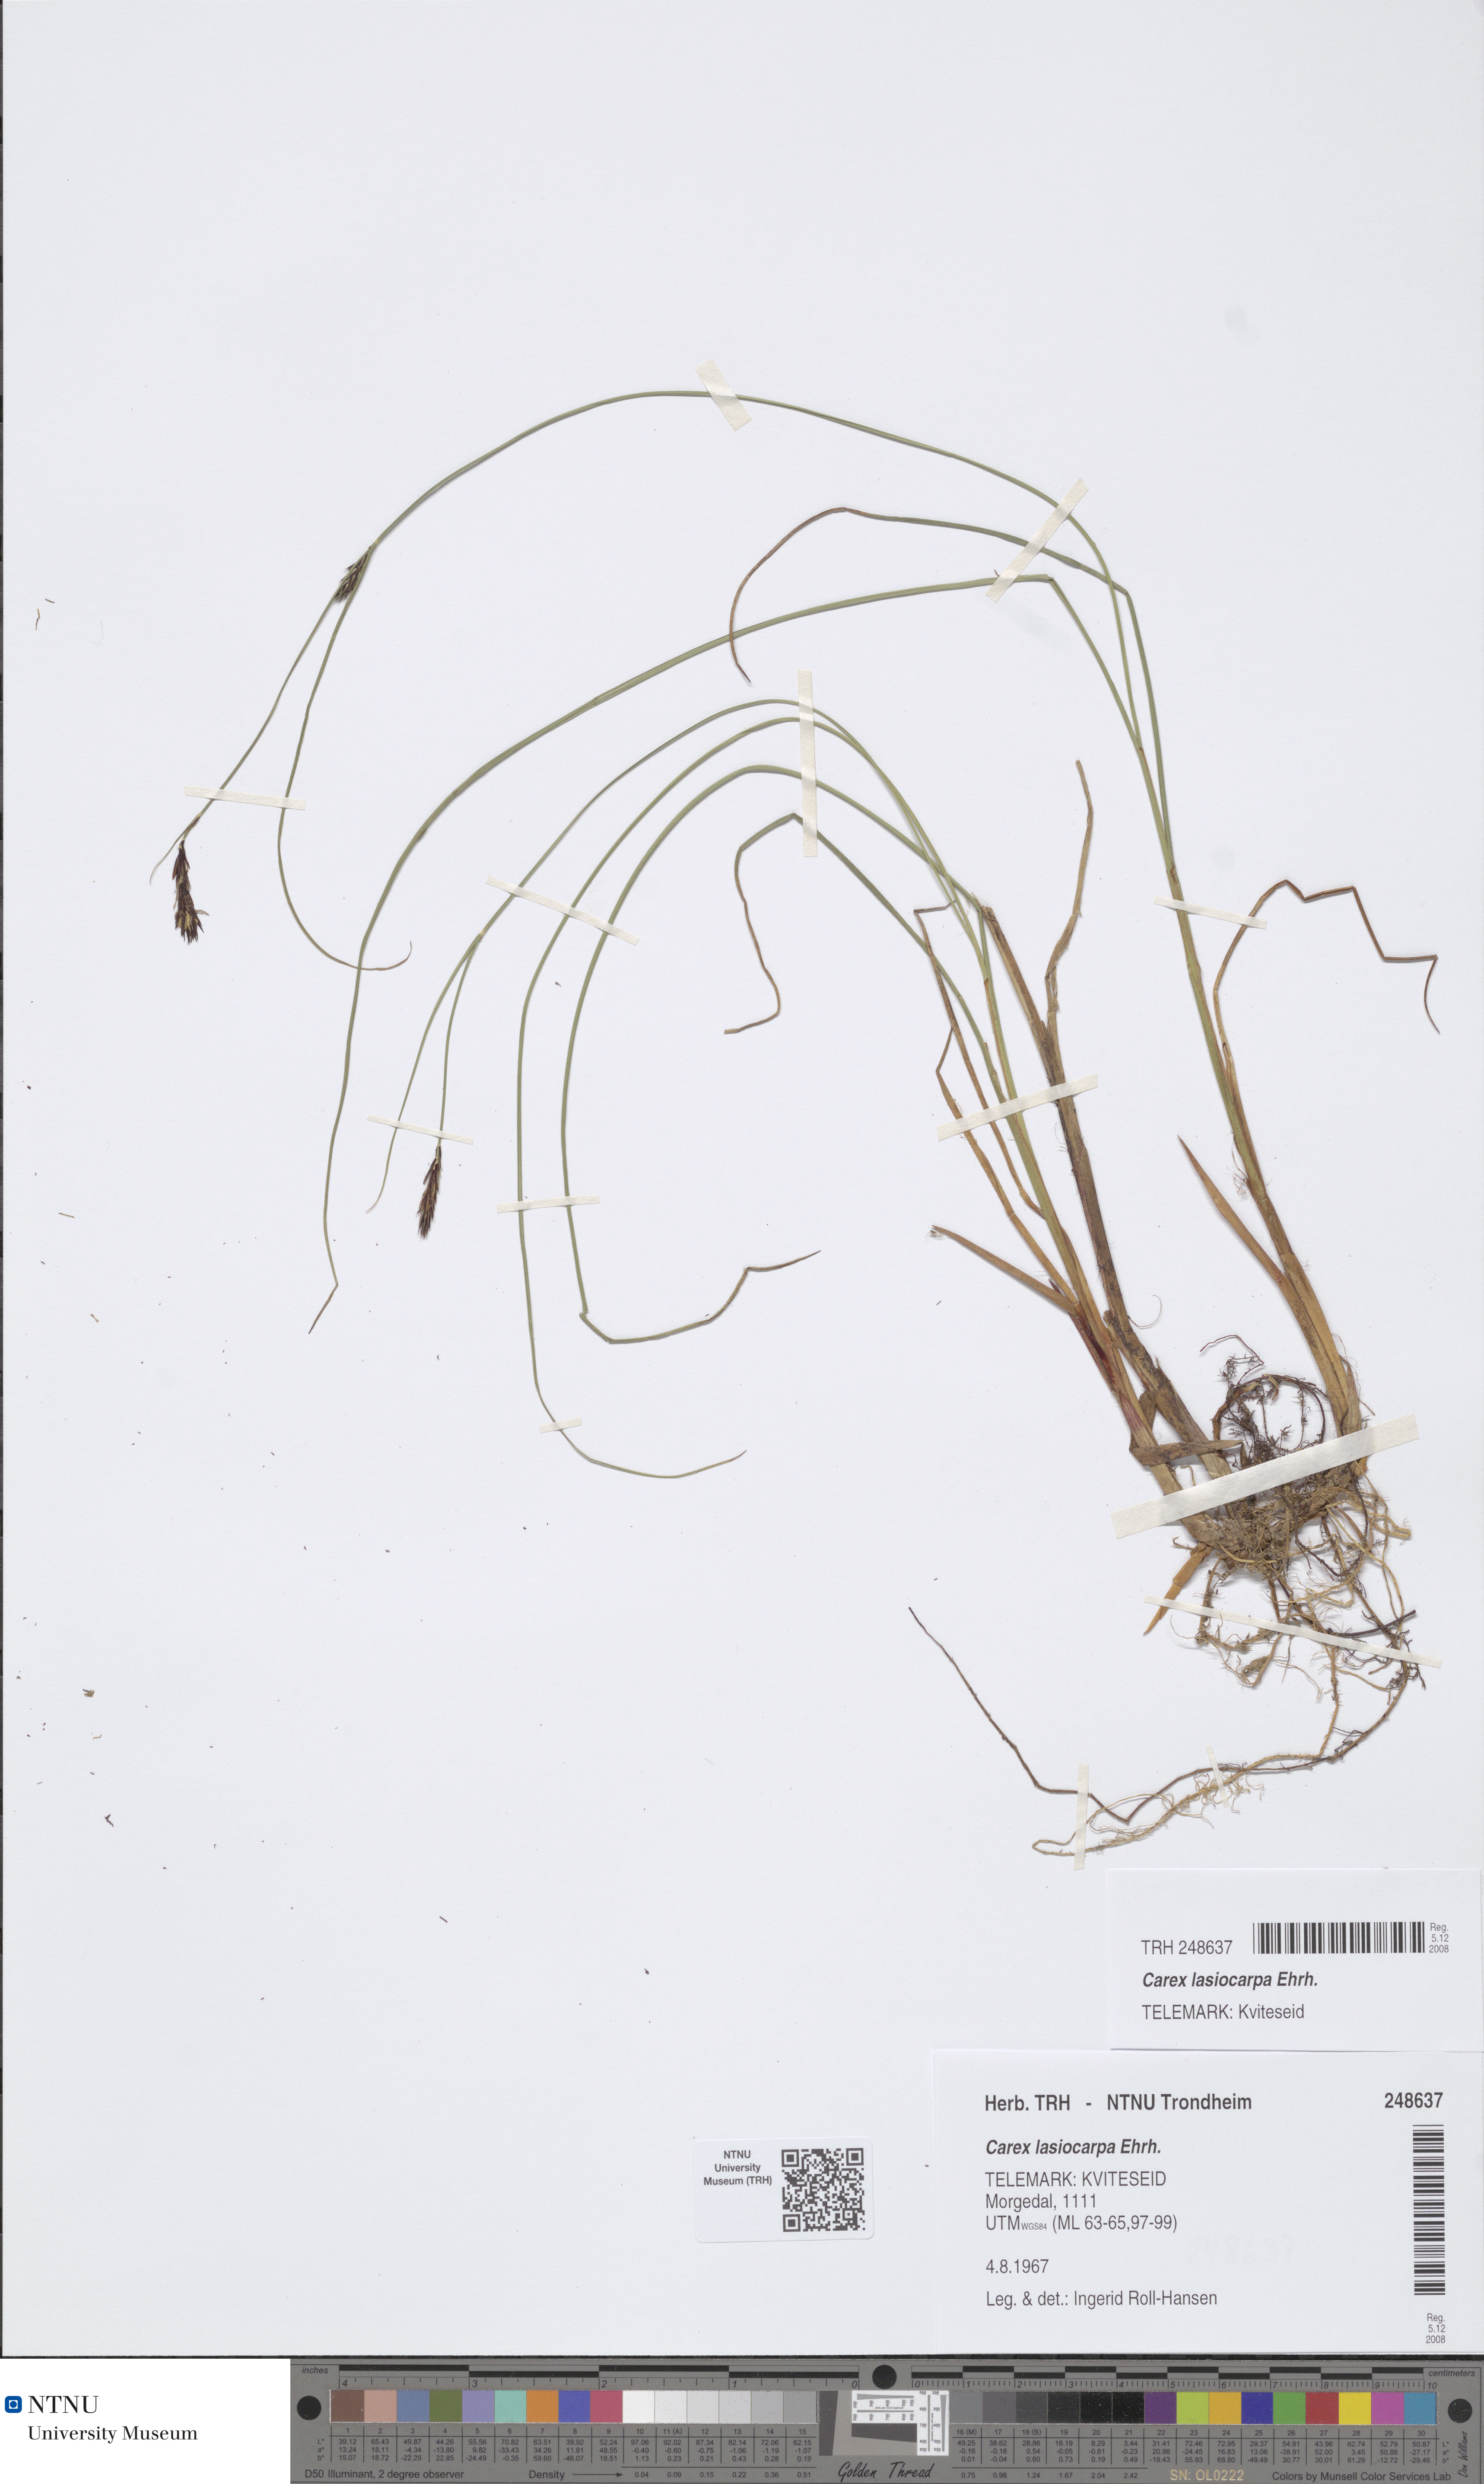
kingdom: Plantae
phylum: Tracheophyta
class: Liliopsida
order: Poales
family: Cyperaceae
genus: Carex
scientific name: Carex lasiocarpa
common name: Slender sedge
